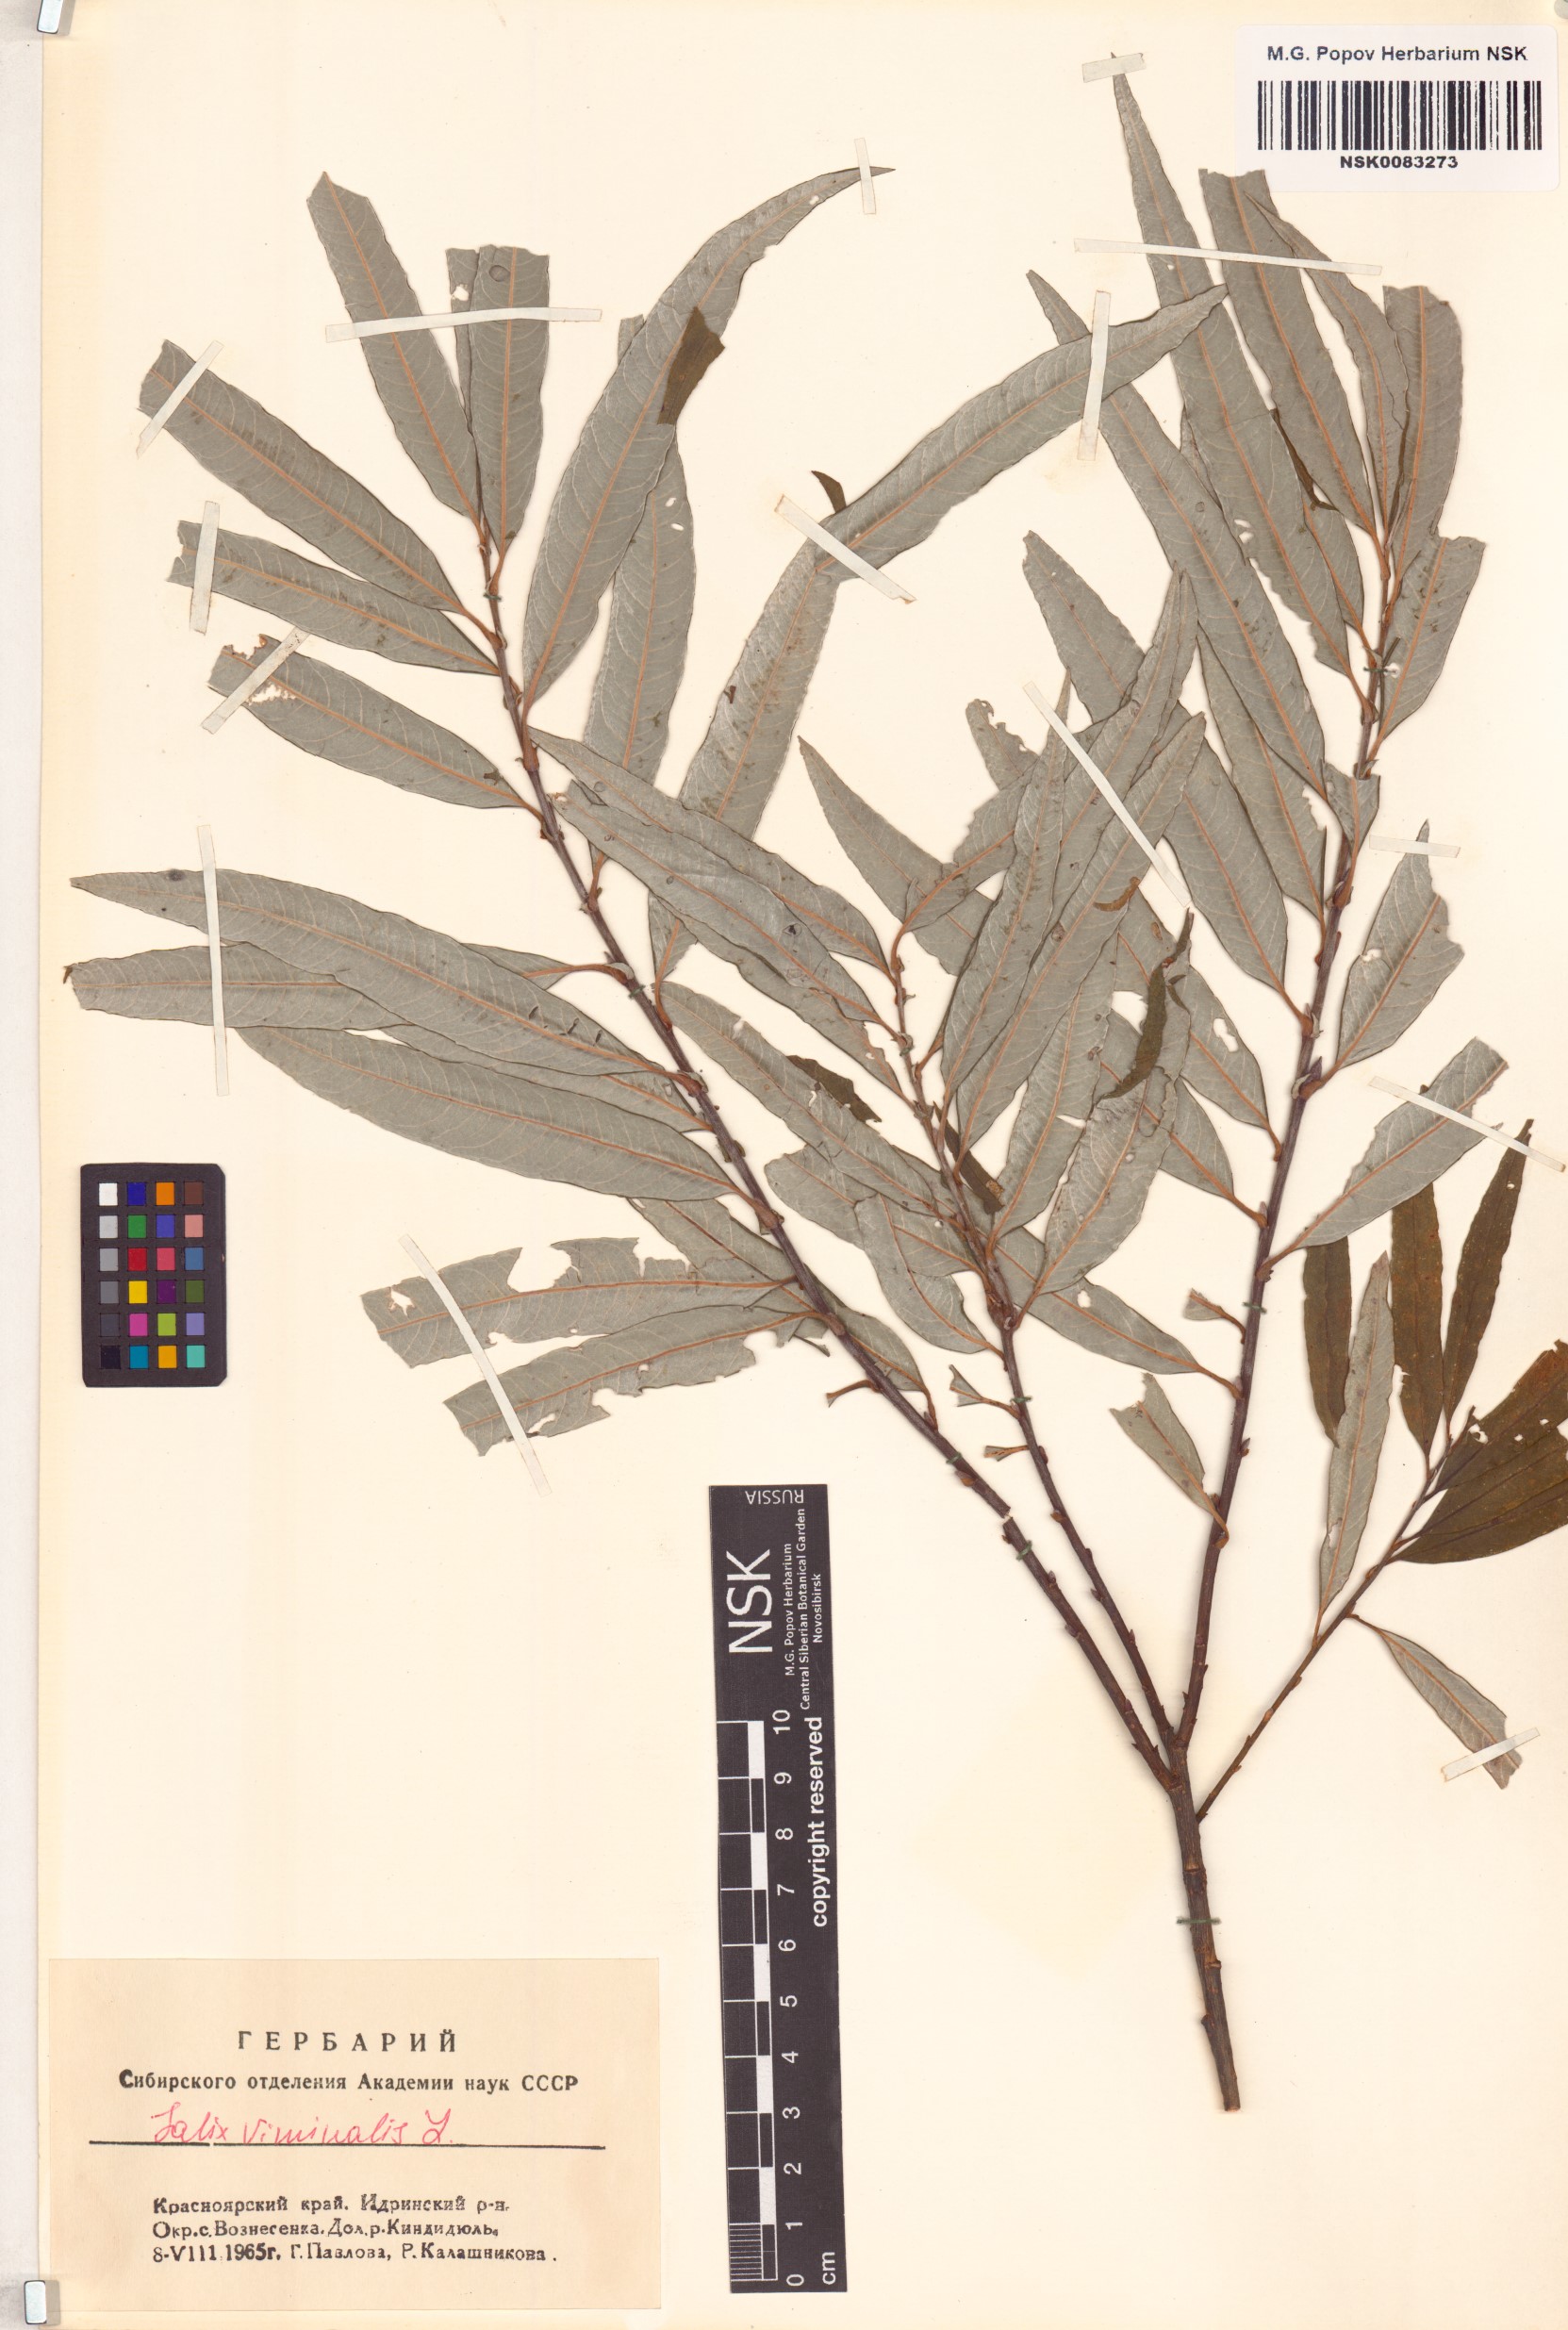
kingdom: Plantae
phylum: Tracheophyta
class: Magnoliopsida
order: Malpighiales
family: Salicaceae
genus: Salix
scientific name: Salix viminalis
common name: Osier
